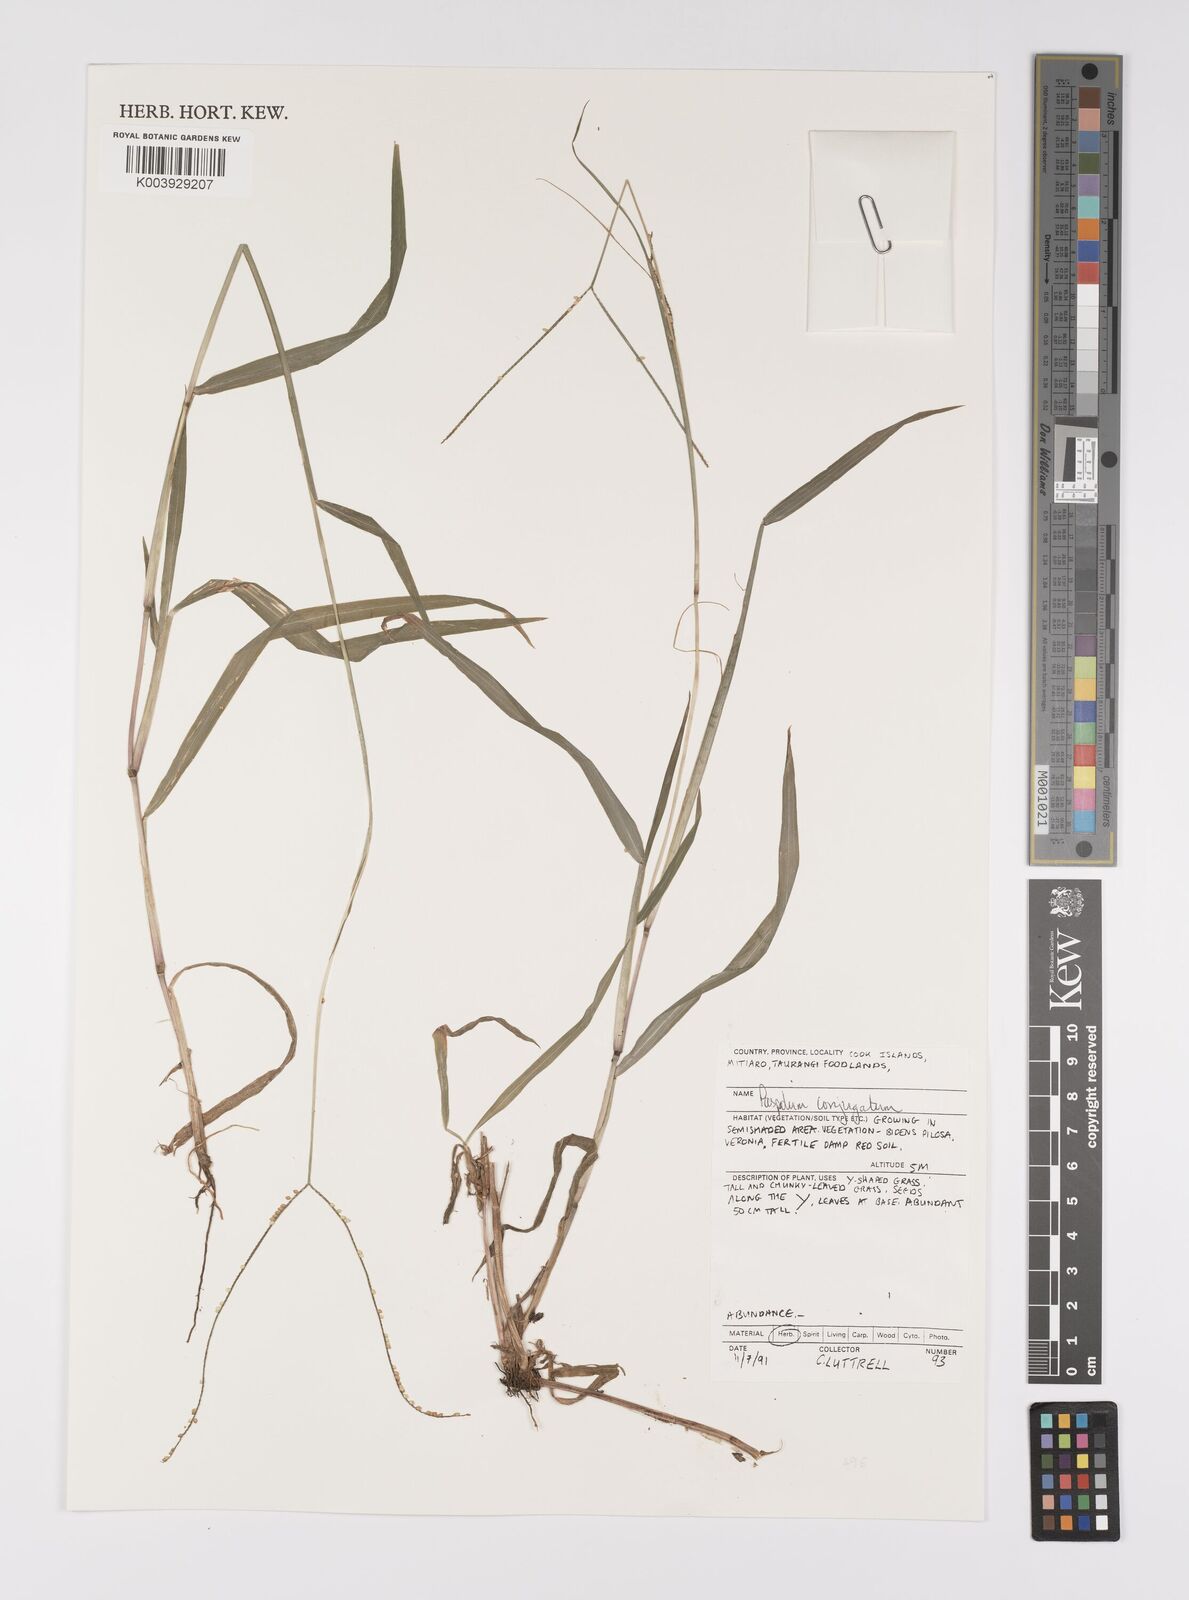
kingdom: Plantae
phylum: Tracheophyta
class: Liliopsida
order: Poales
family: Poaceae
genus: Paspalum
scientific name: Paspalum conjugatum
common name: Hilograss
